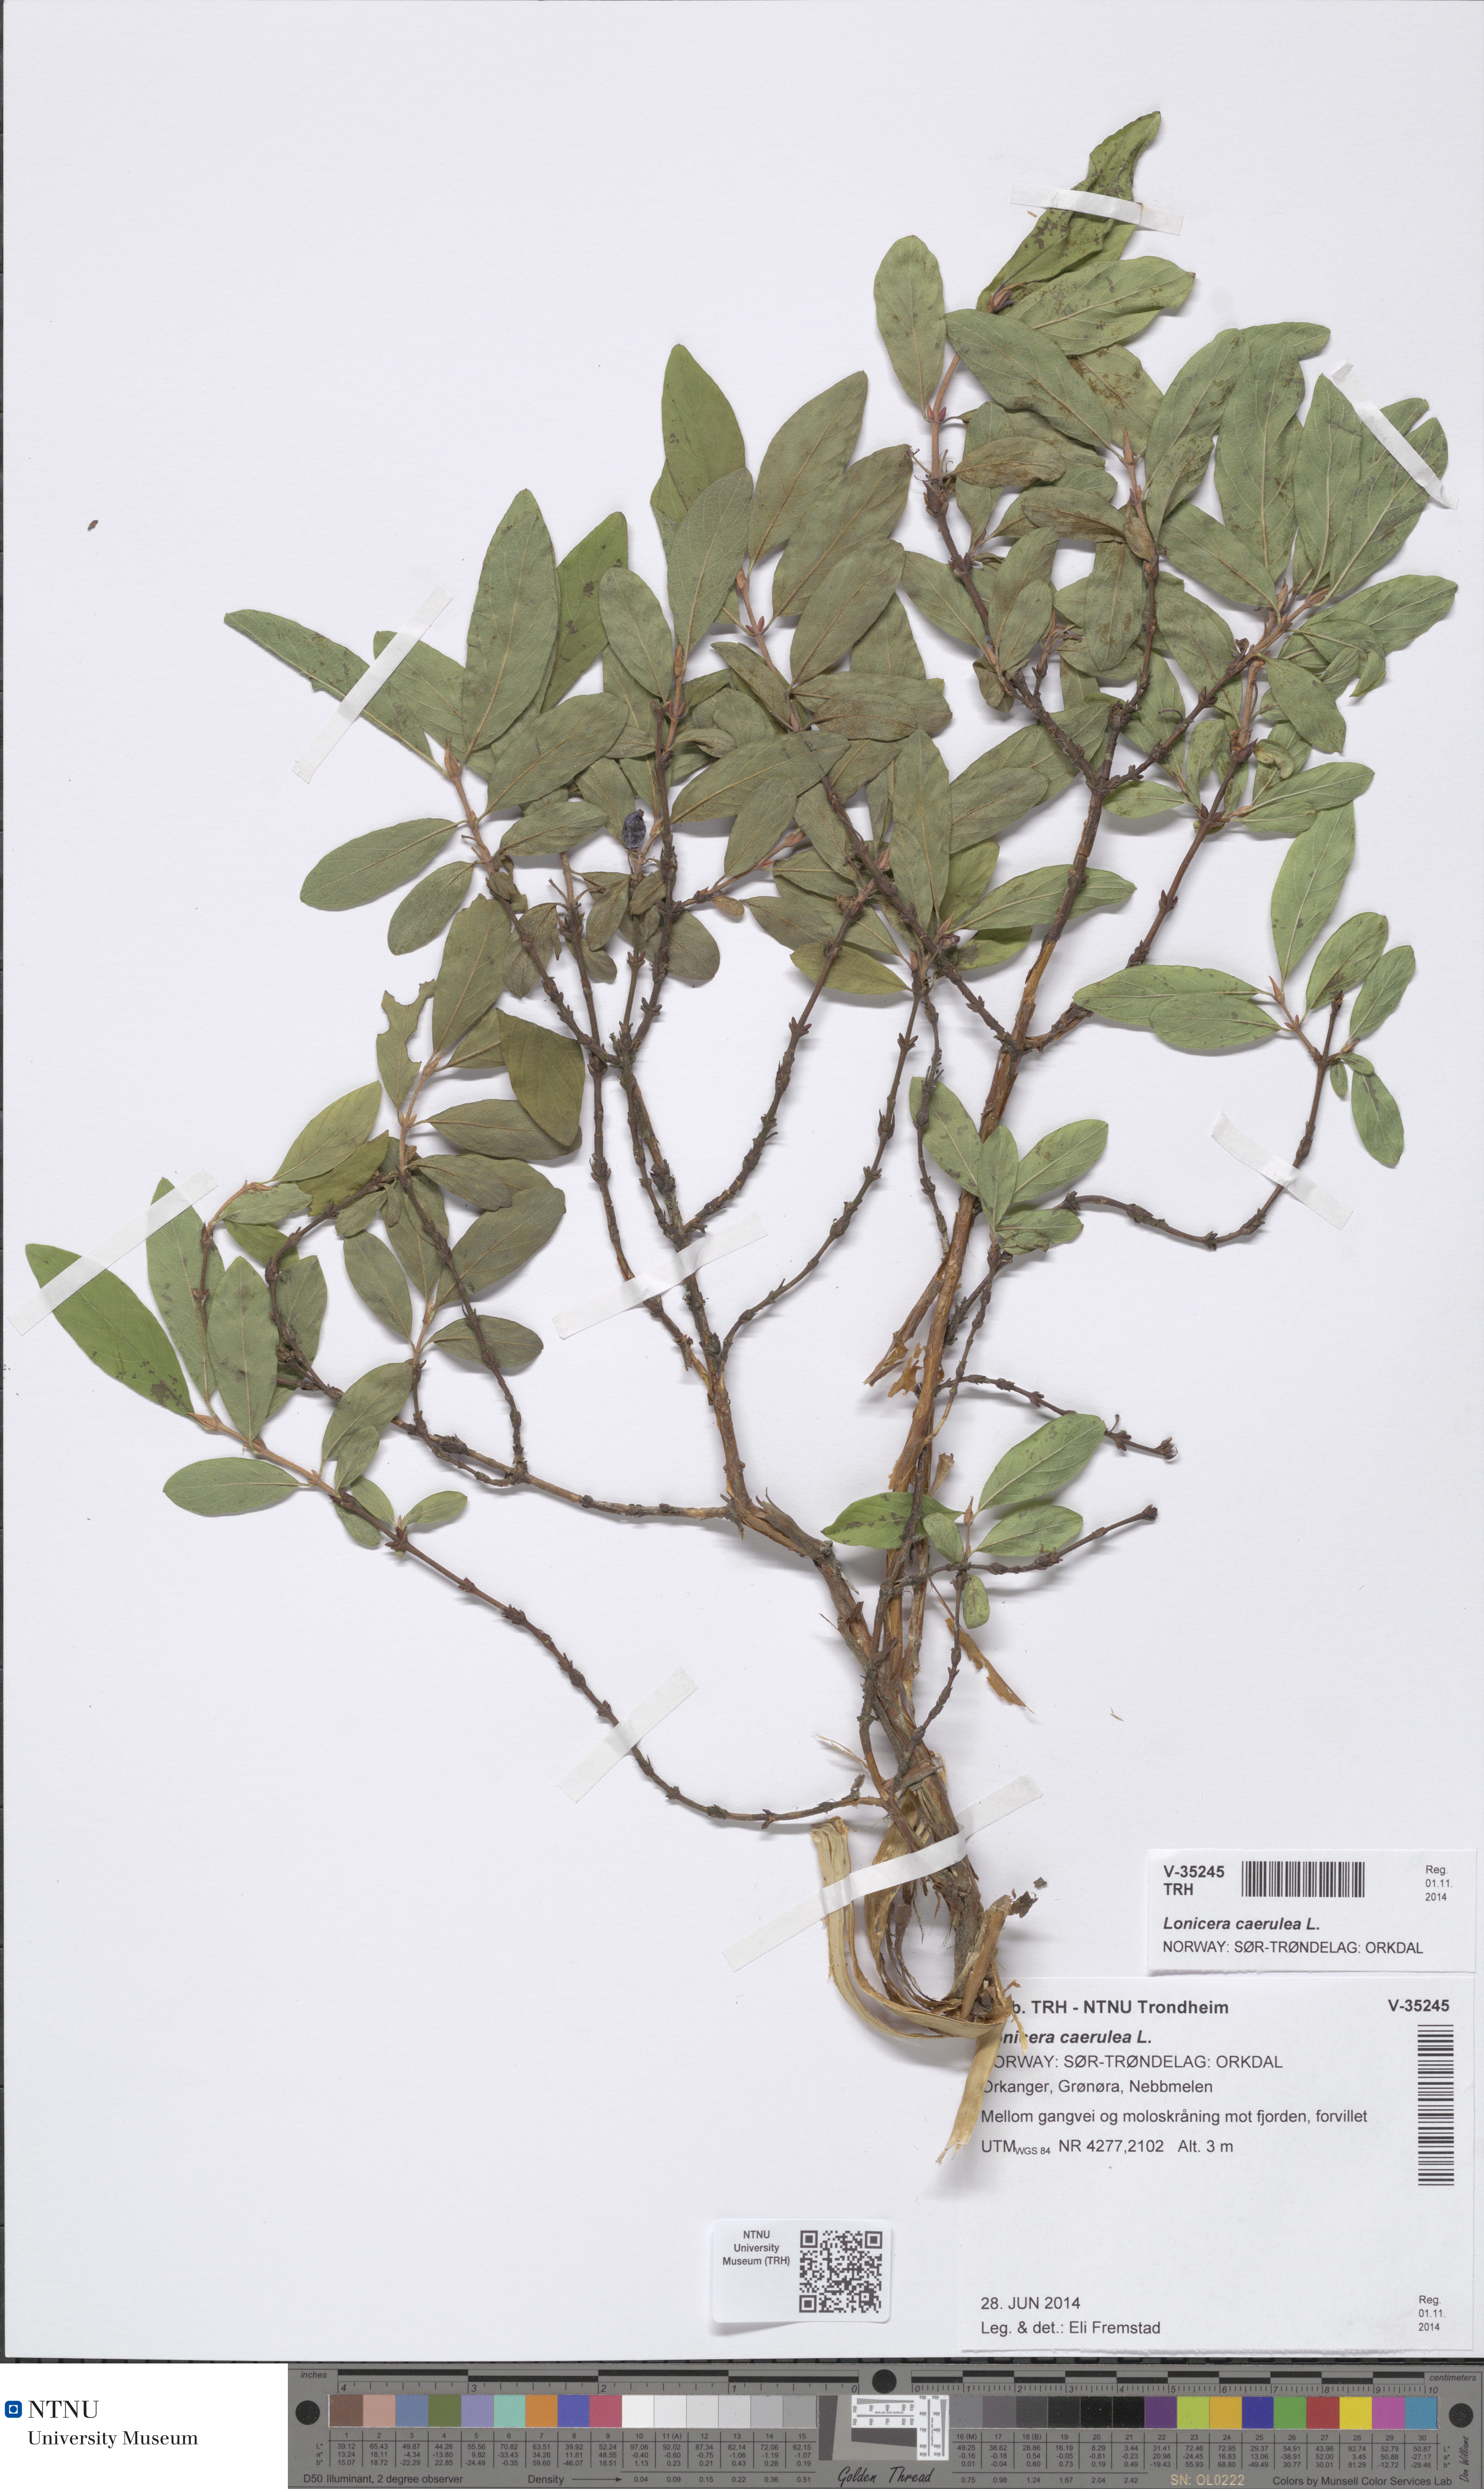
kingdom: Plantae
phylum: Tracheophyta
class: Magnoliopsida
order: Dipsacales
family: Caprifoliaceae
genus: Lonicera
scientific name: Lonicera caerulea
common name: Blue honeysuckle
